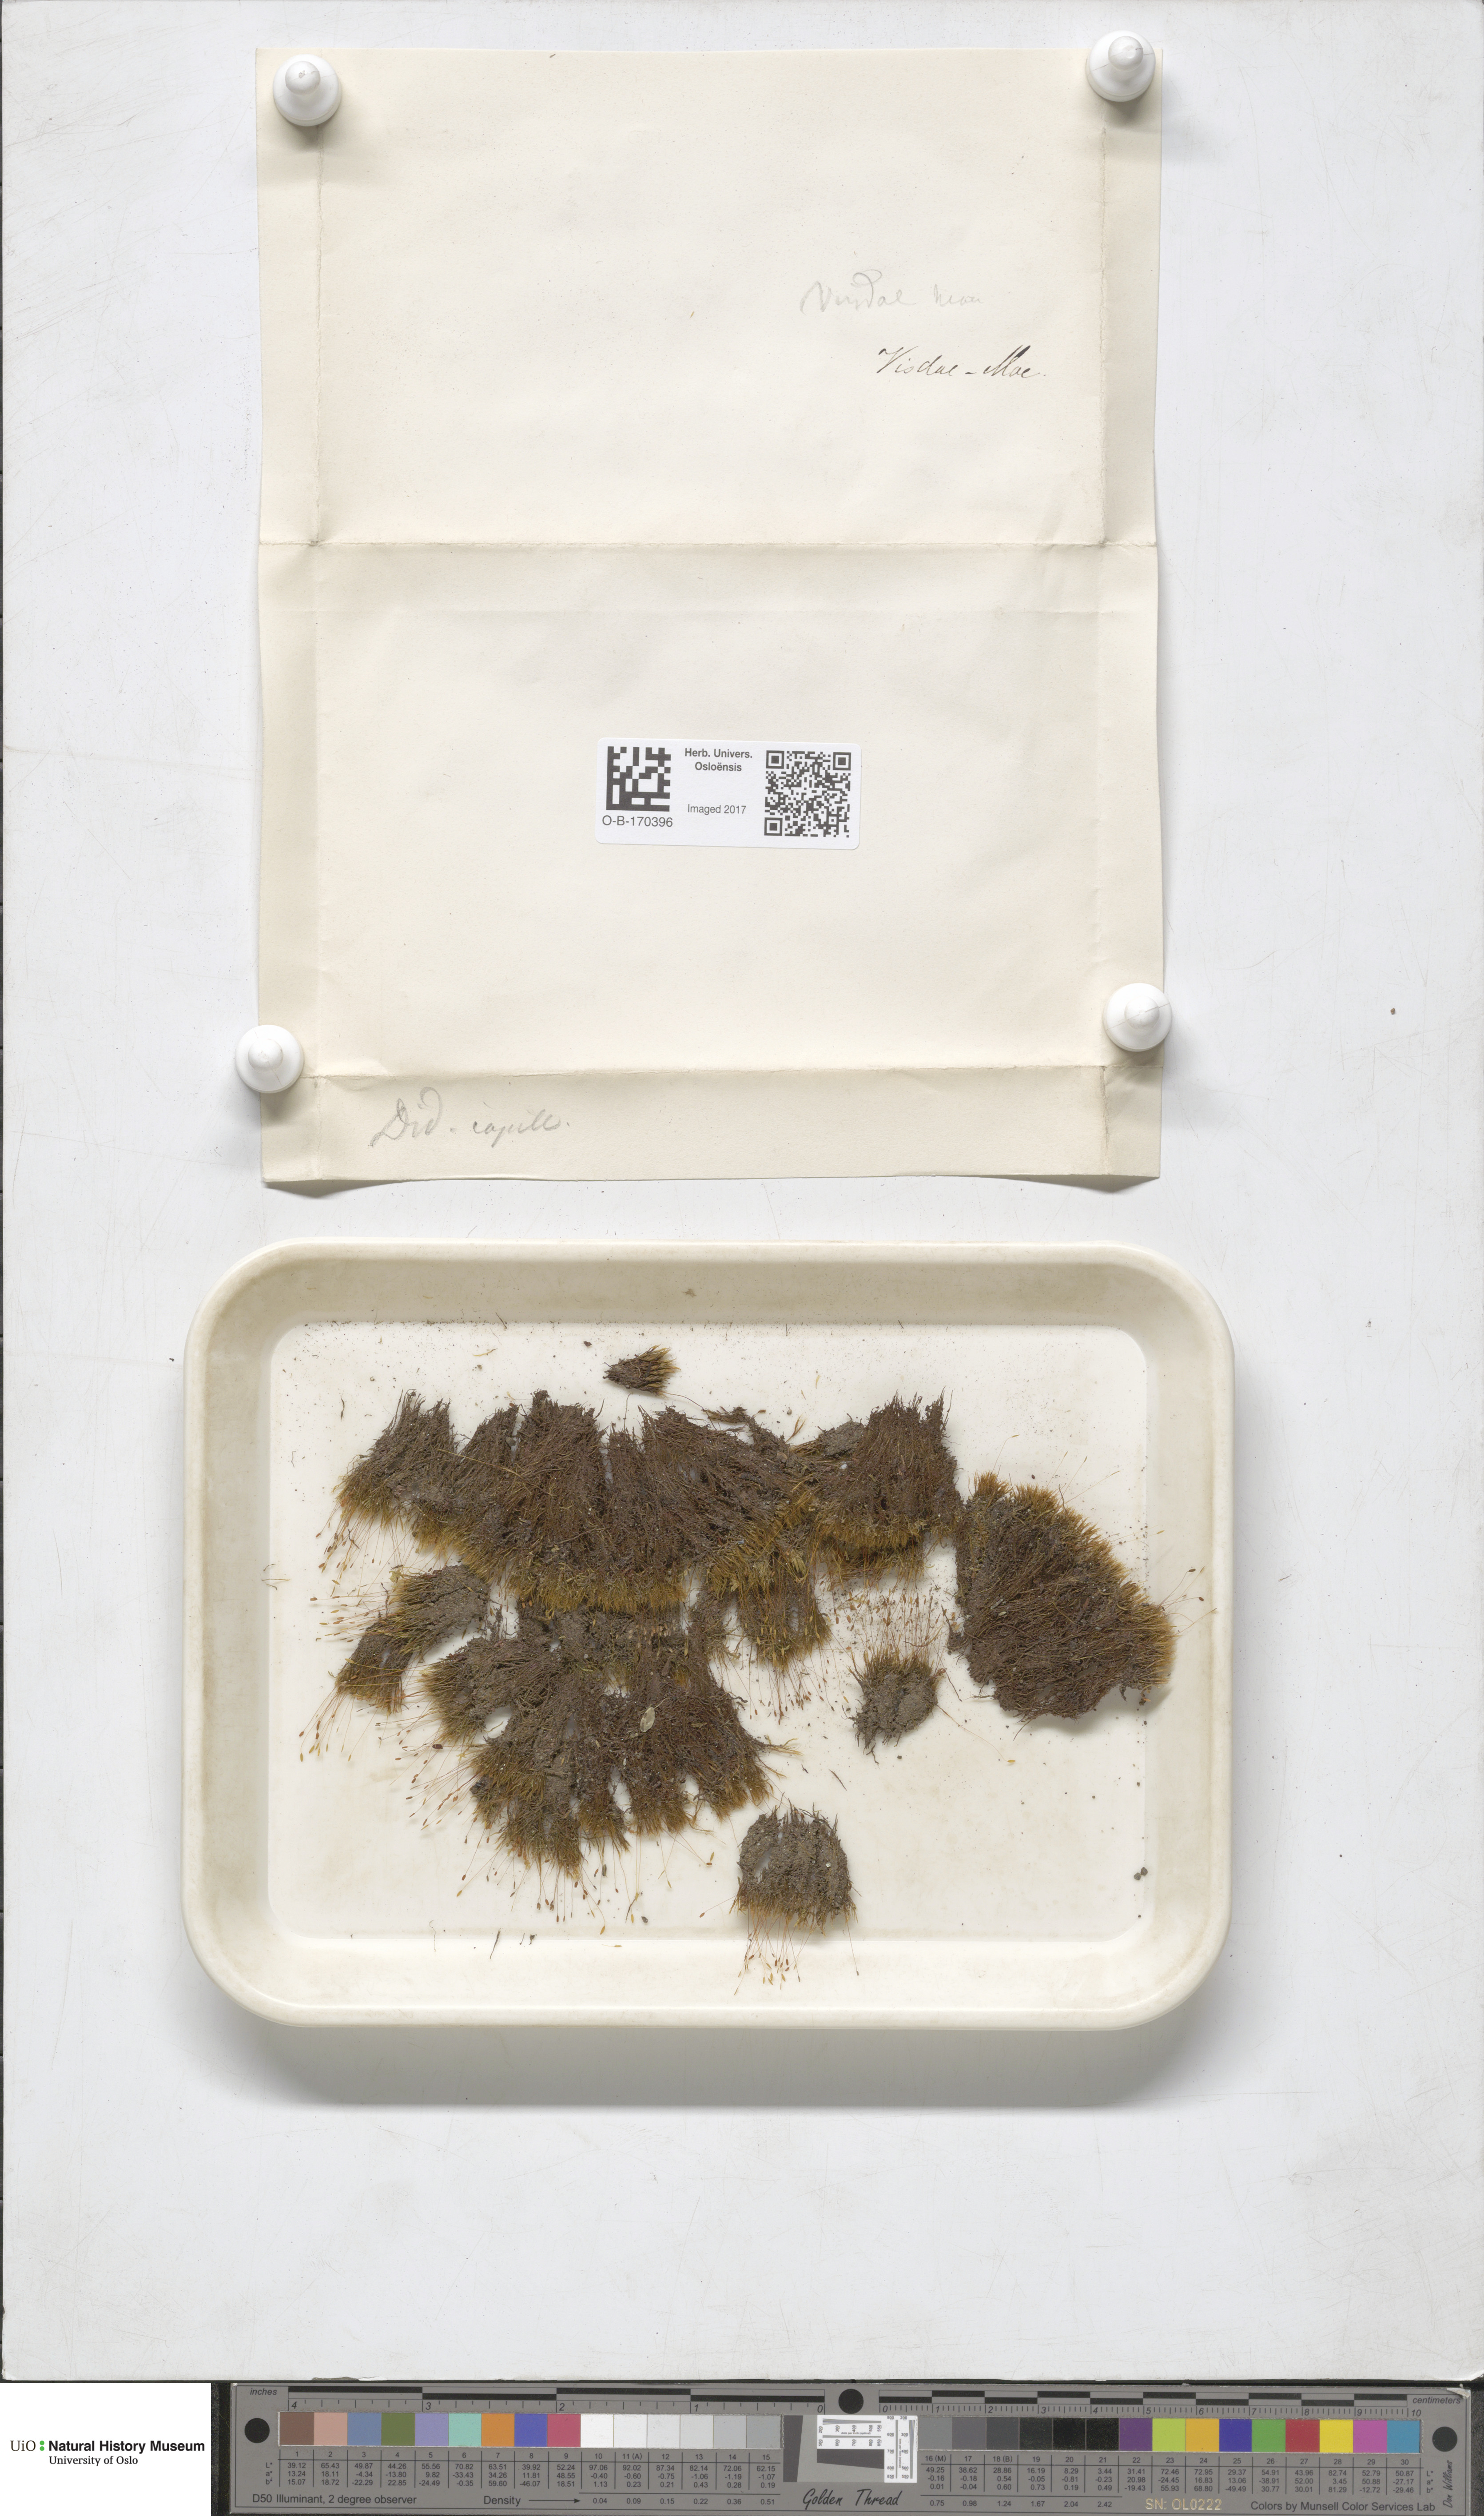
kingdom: Plantae
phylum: Bryophyta
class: Bryopsida
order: Scouleriales
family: Distichiaceae
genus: Distichium
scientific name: Distichium capillaceum
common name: Erect-fruited iris moss
